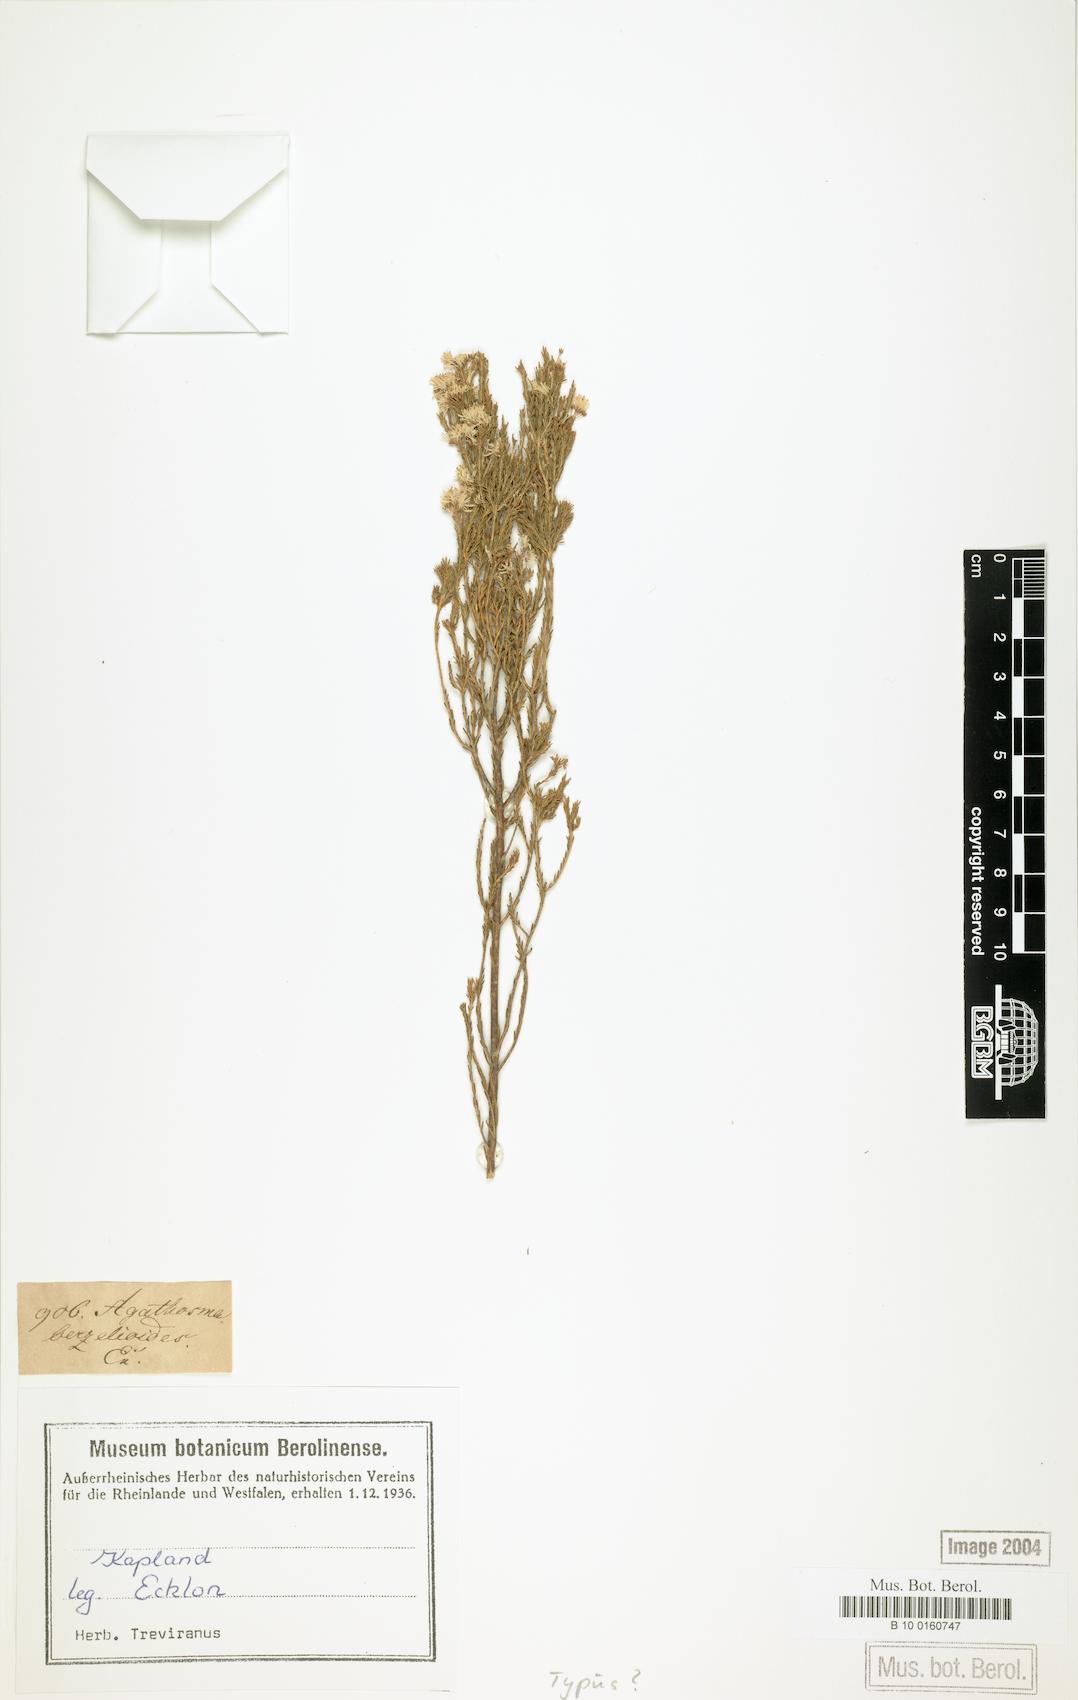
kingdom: Plantae
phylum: Tracheophyta
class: Magnoliopsida
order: Sapindales
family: Rutaceae
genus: Agathosma
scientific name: Agathosma
